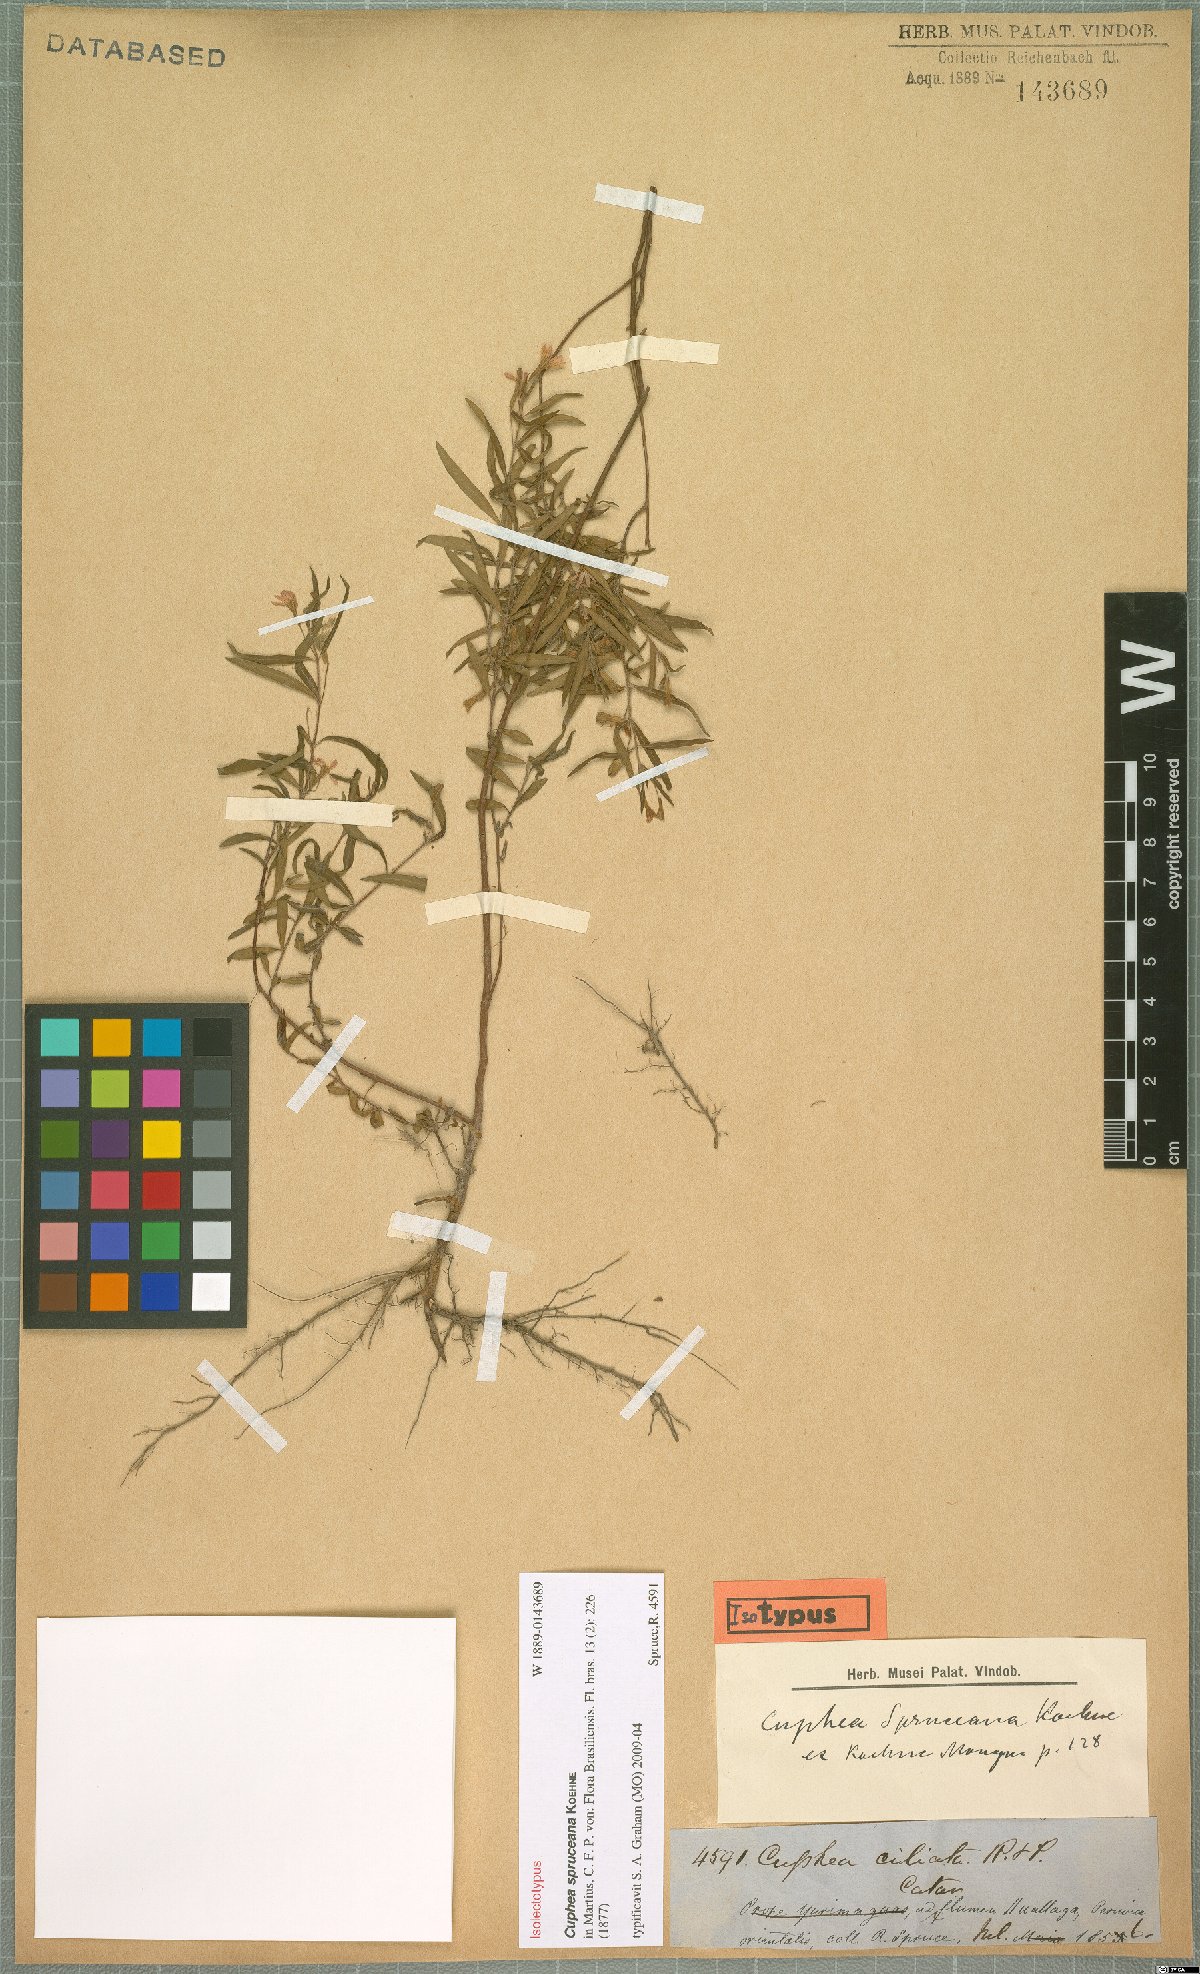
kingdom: Plantae
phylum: Tracheophyta
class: Magnoliopsida
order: Myrtales
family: Lythraceae
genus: Cuphea
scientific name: Cuphea spruceana
